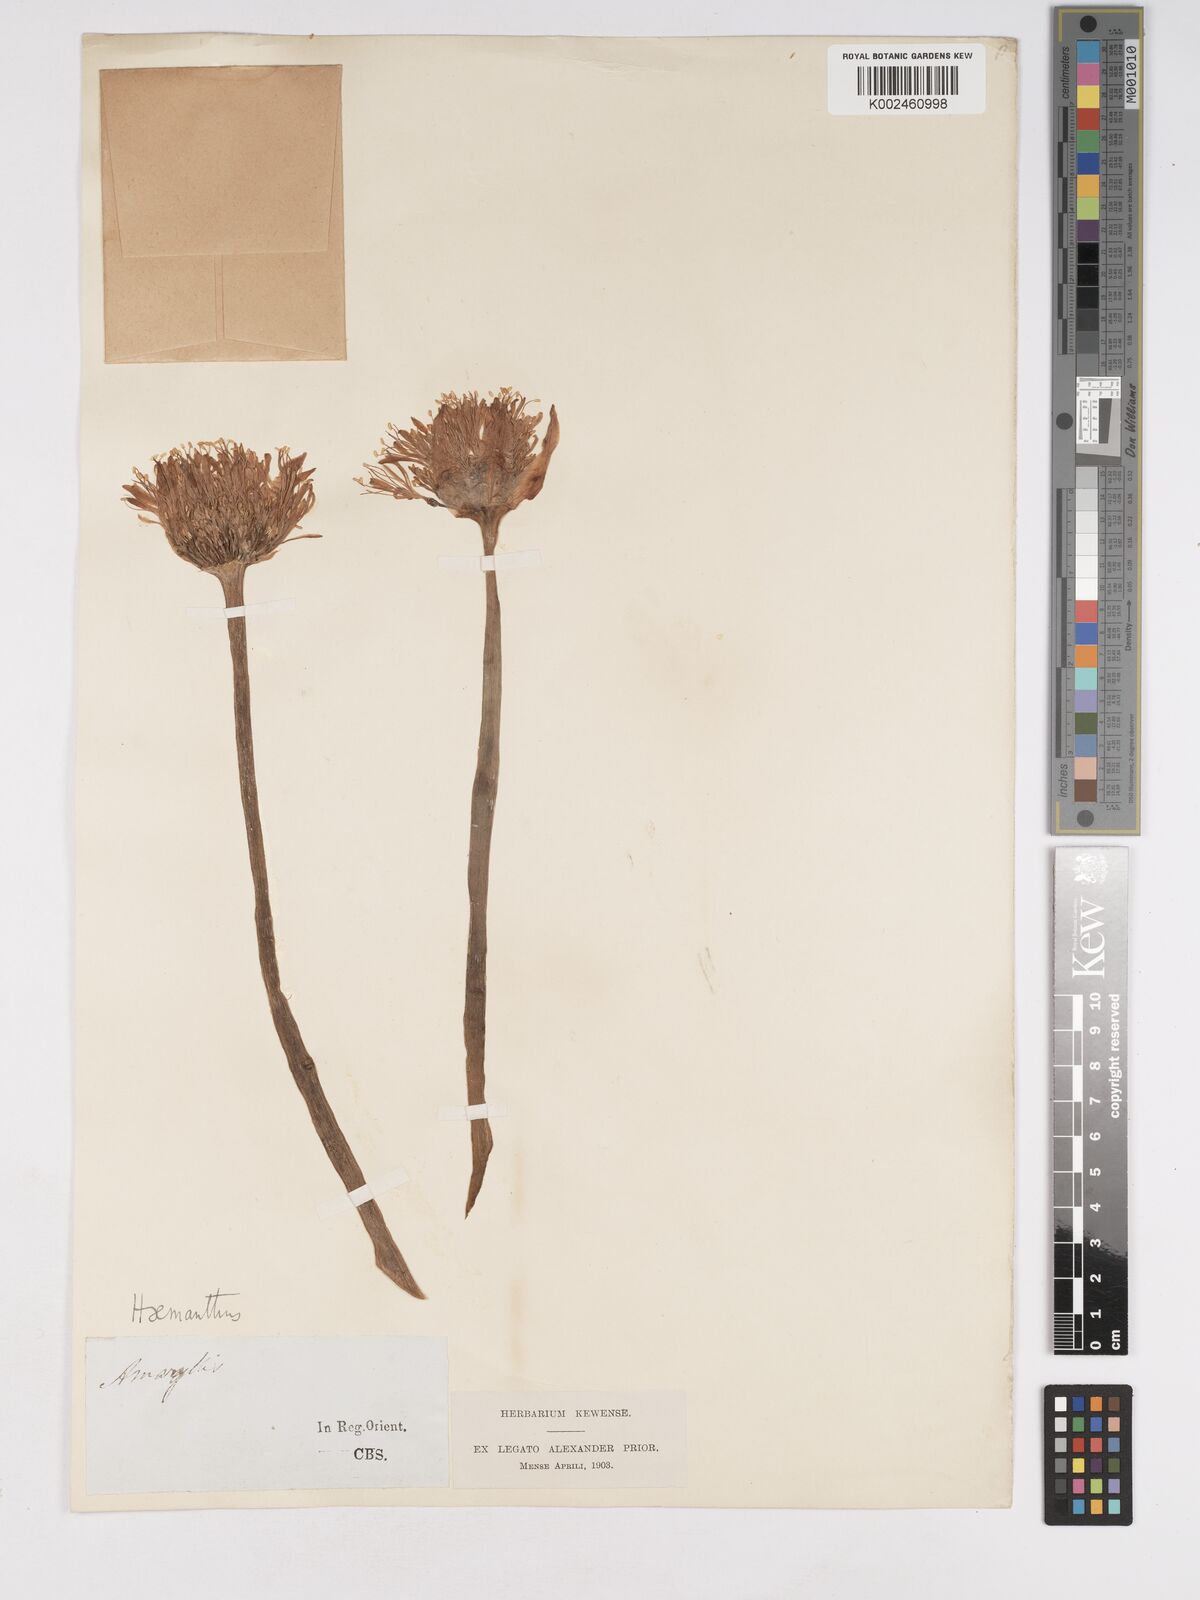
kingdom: Plantae
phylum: Tracheophyta
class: Liliopsida
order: Asparagales
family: Amaryllidaceae
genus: Haemanthus
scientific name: Haemanthus
